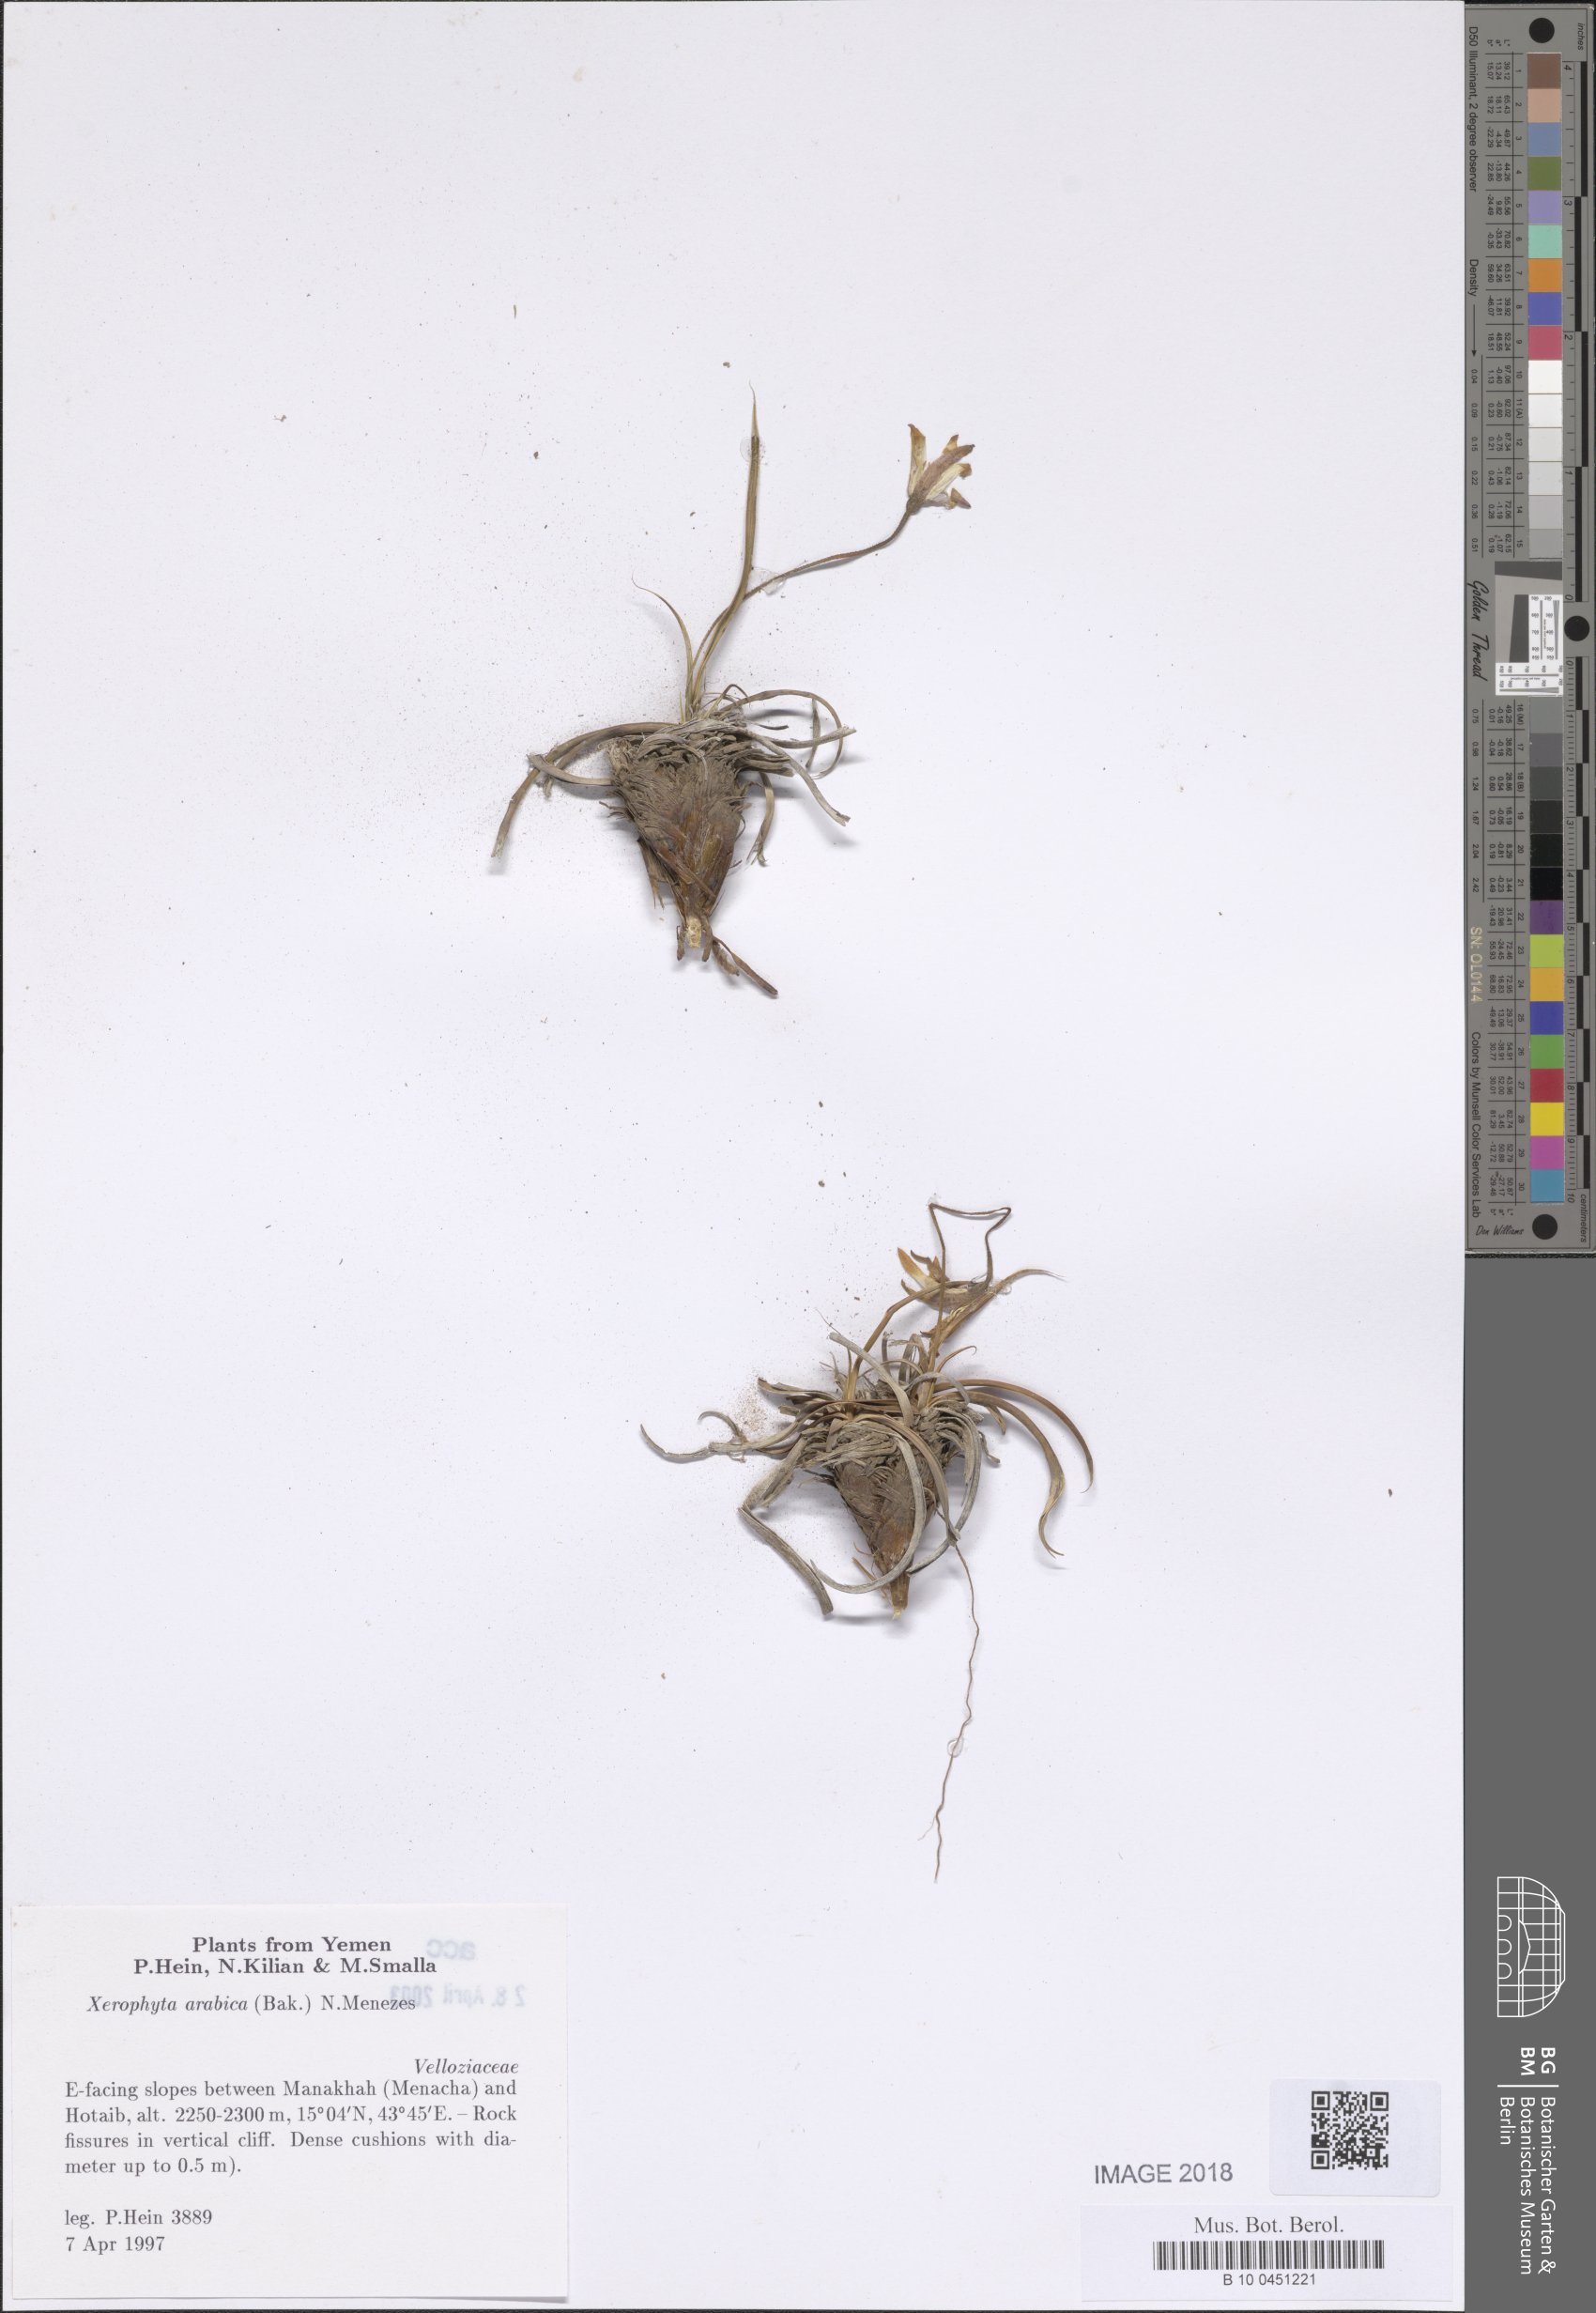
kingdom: Plantae
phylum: Tracheophyta
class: Liliopsida
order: Pandanales
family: Velloziaceae
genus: Xerophyta
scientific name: Xerophyta arabica
